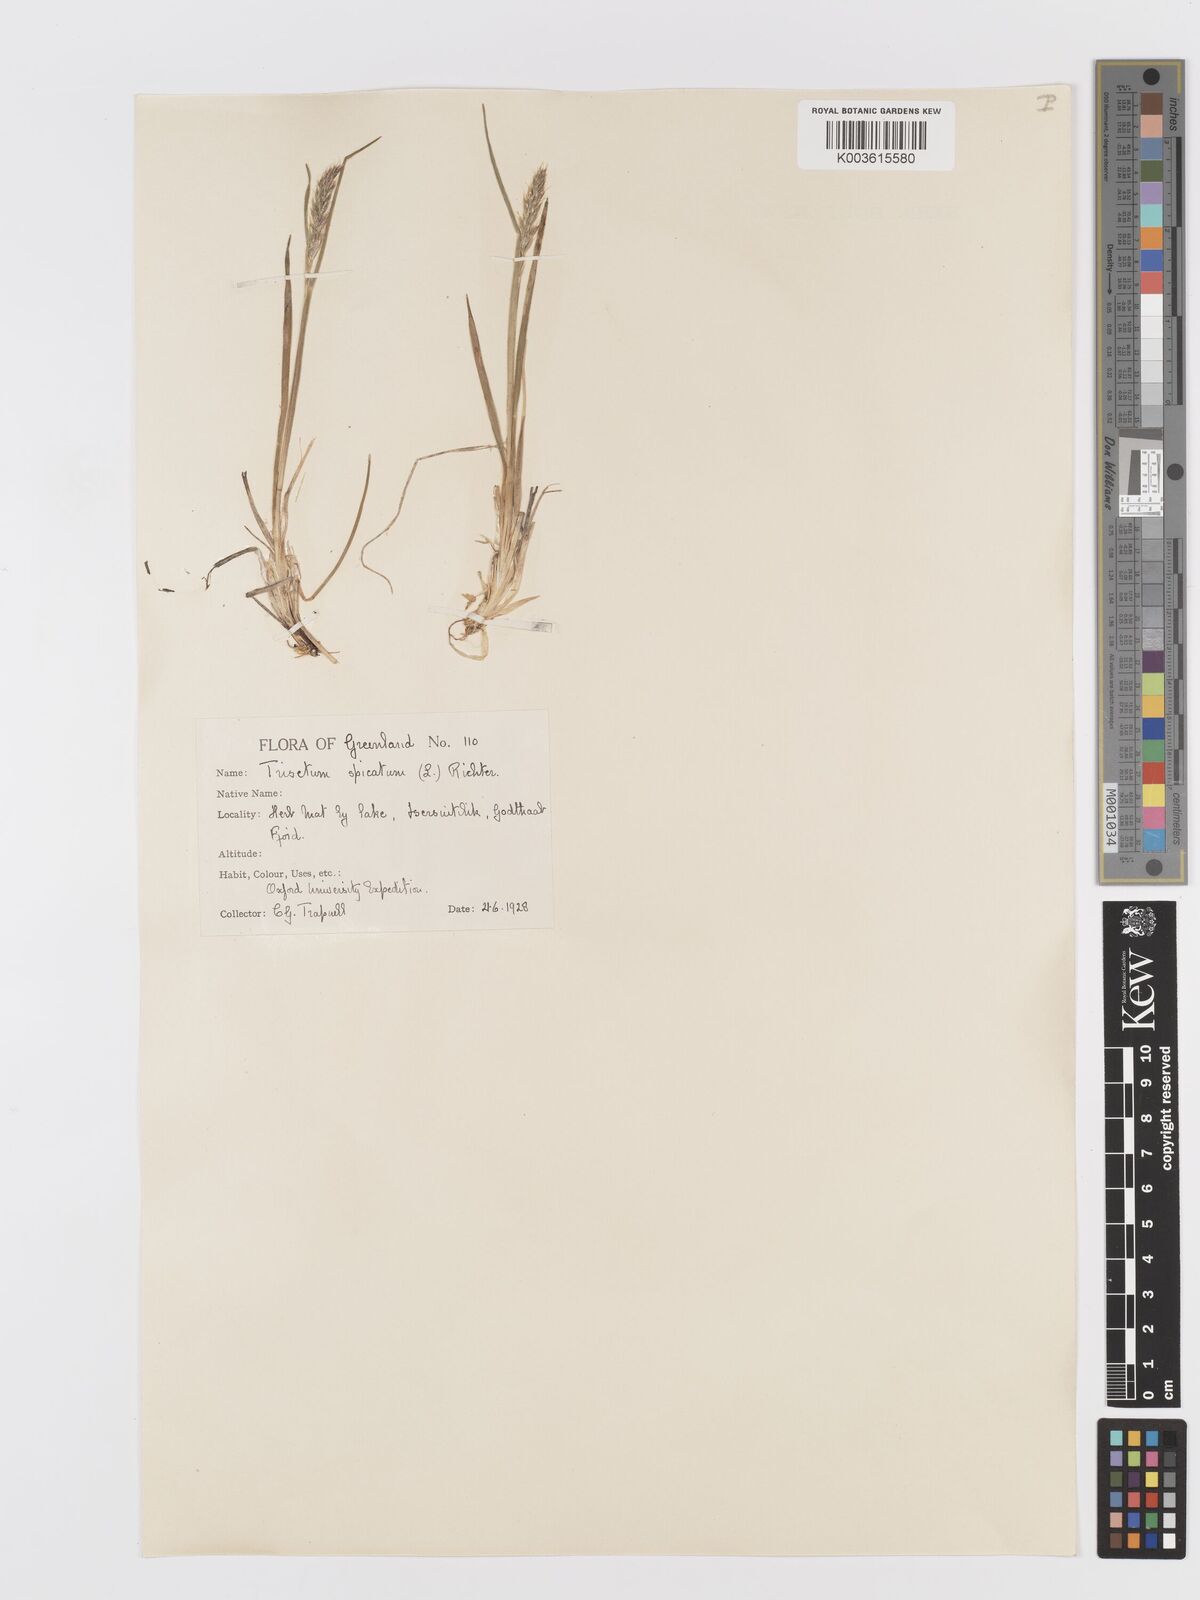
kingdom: Plantae
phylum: Tracheophyta
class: Liliopsida
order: Poales
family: Poaceae
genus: Koeleria
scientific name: Koeleria spicata
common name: Mountain trisetum
